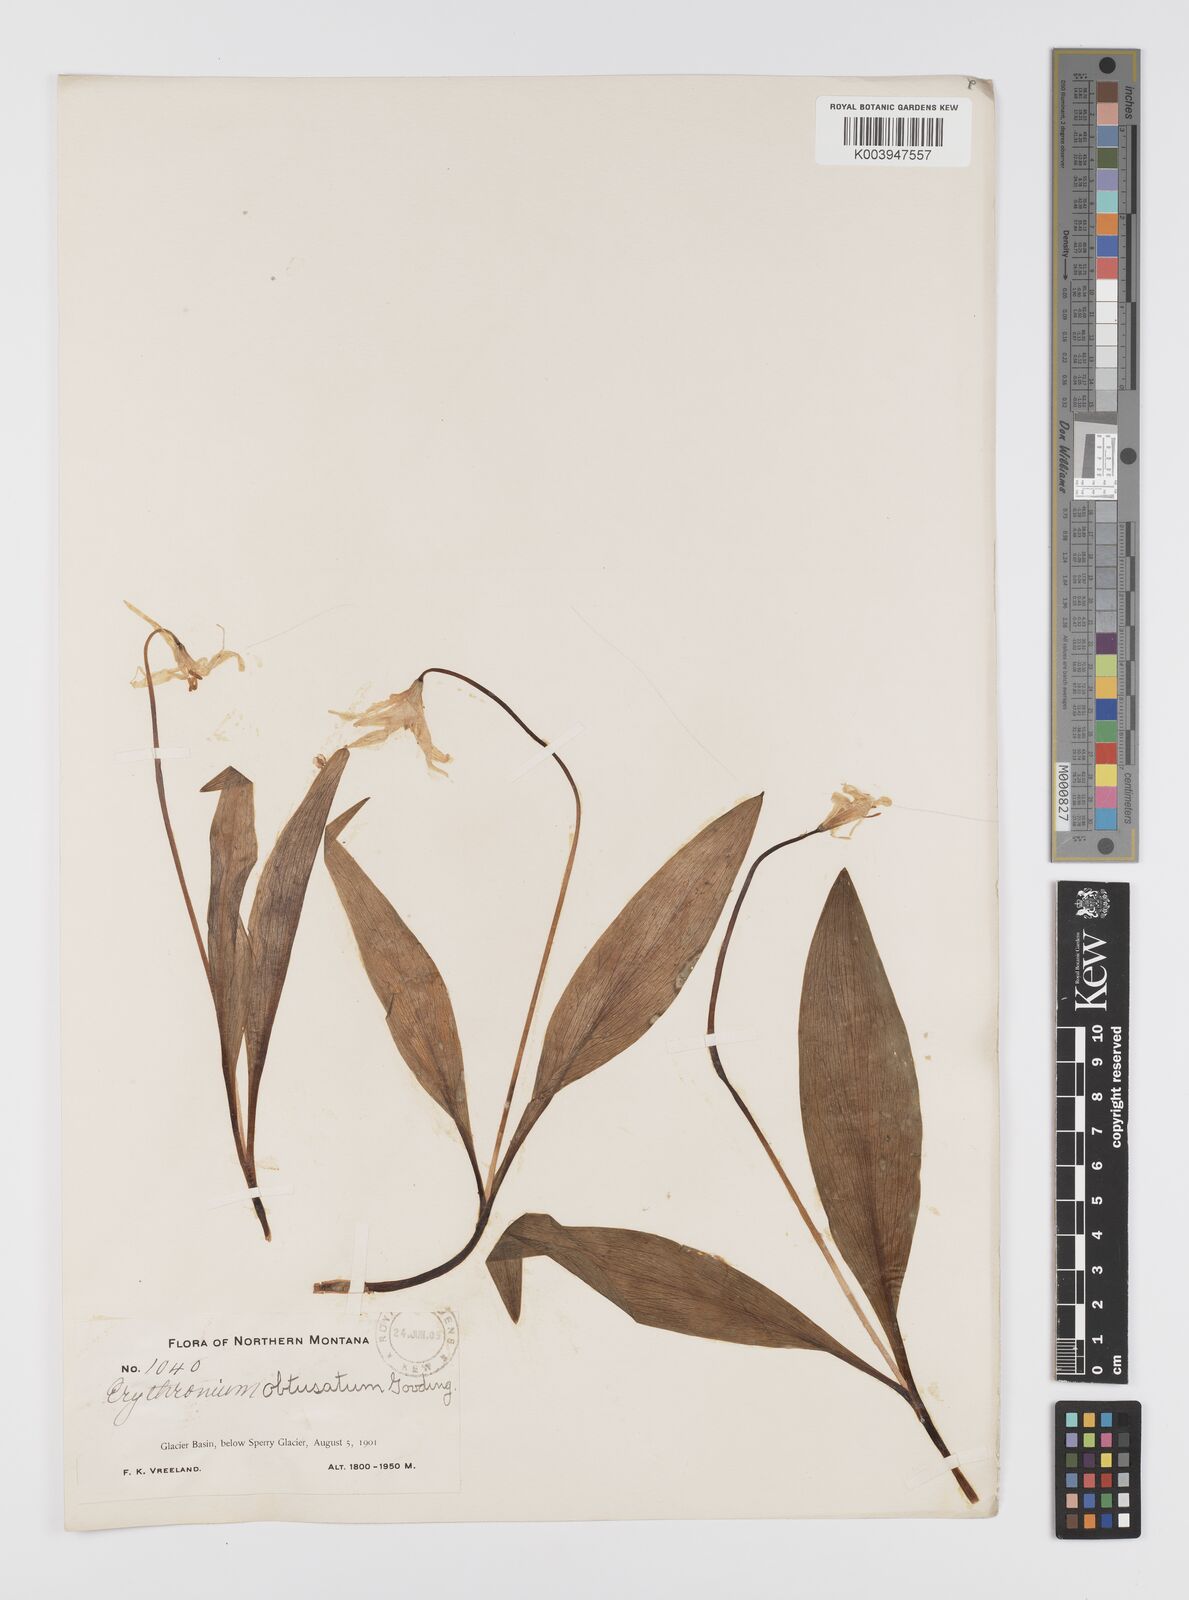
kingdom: Plantae
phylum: Tracheophyta
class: Liliopsida
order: Liliales
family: Liliaceae
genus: Erythronium
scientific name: Erythronium grandiflorum
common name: Avalanche-lily
